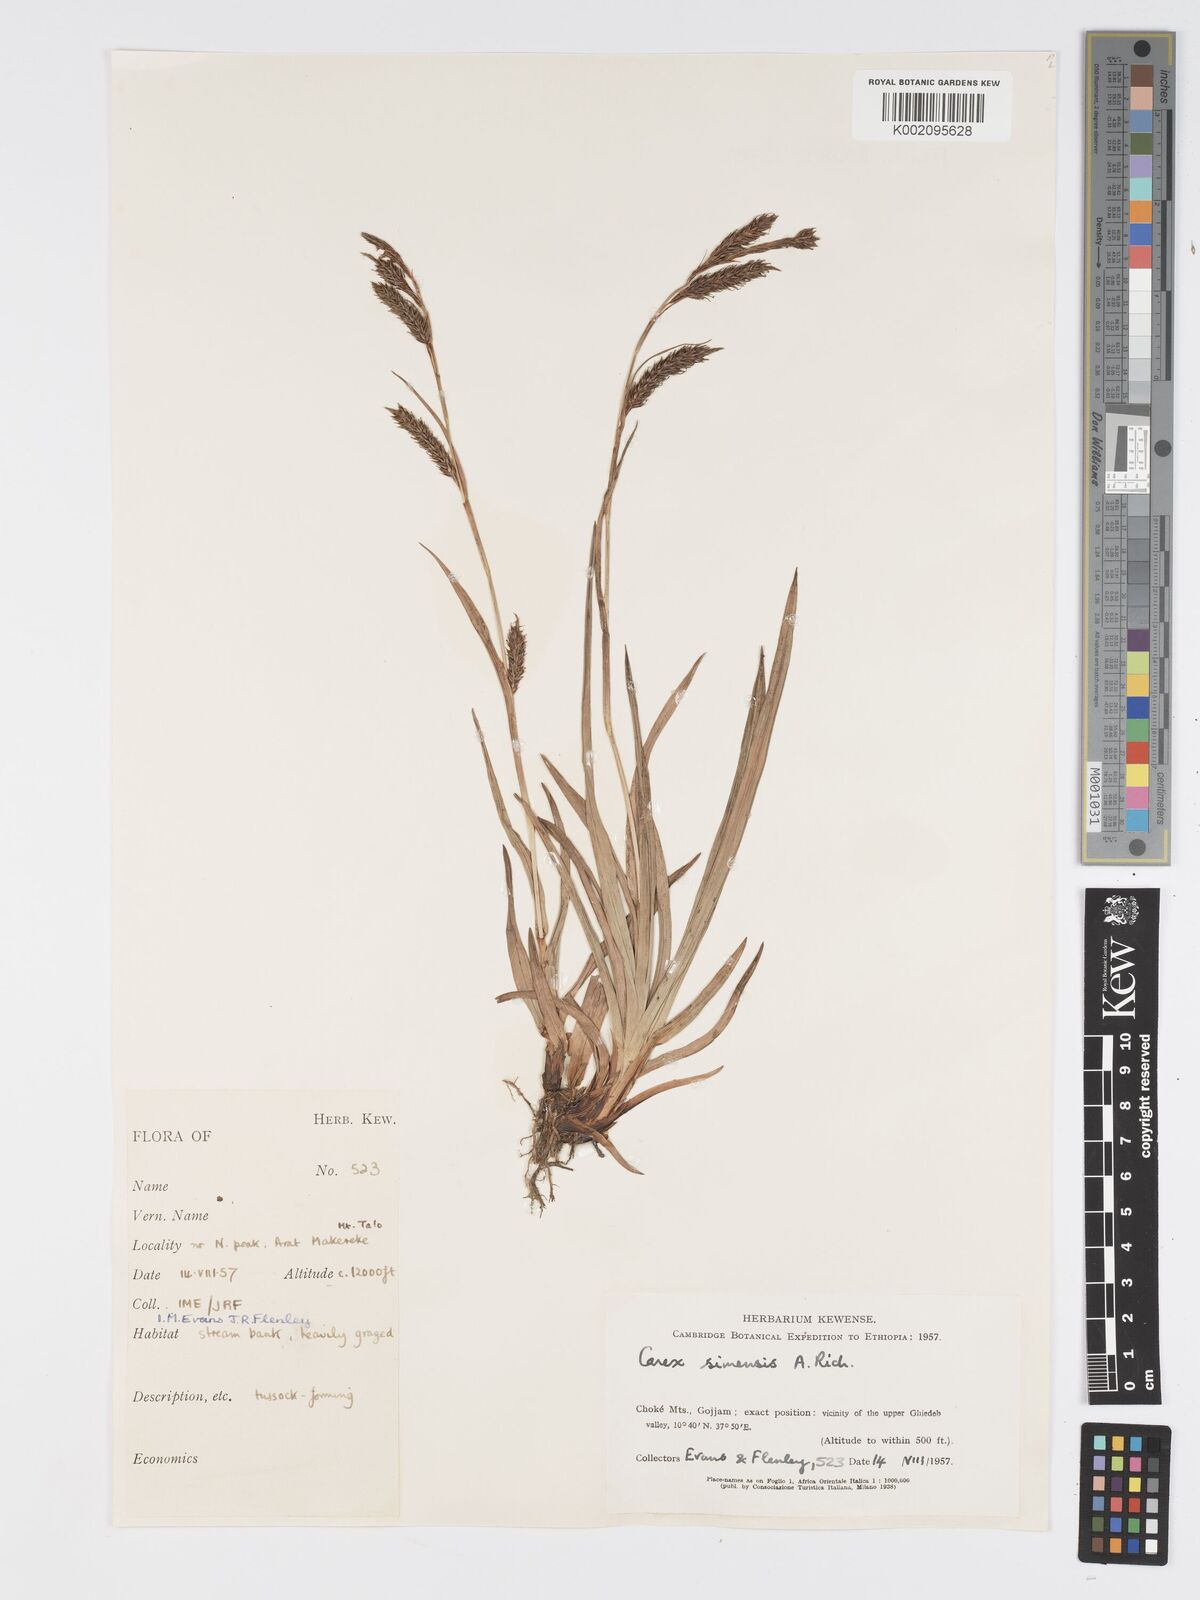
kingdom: Plantae
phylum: Tracheophyta
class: Liliopsida
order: Poales
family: Cyperaceae
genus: Carex
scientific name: Carex simensis
